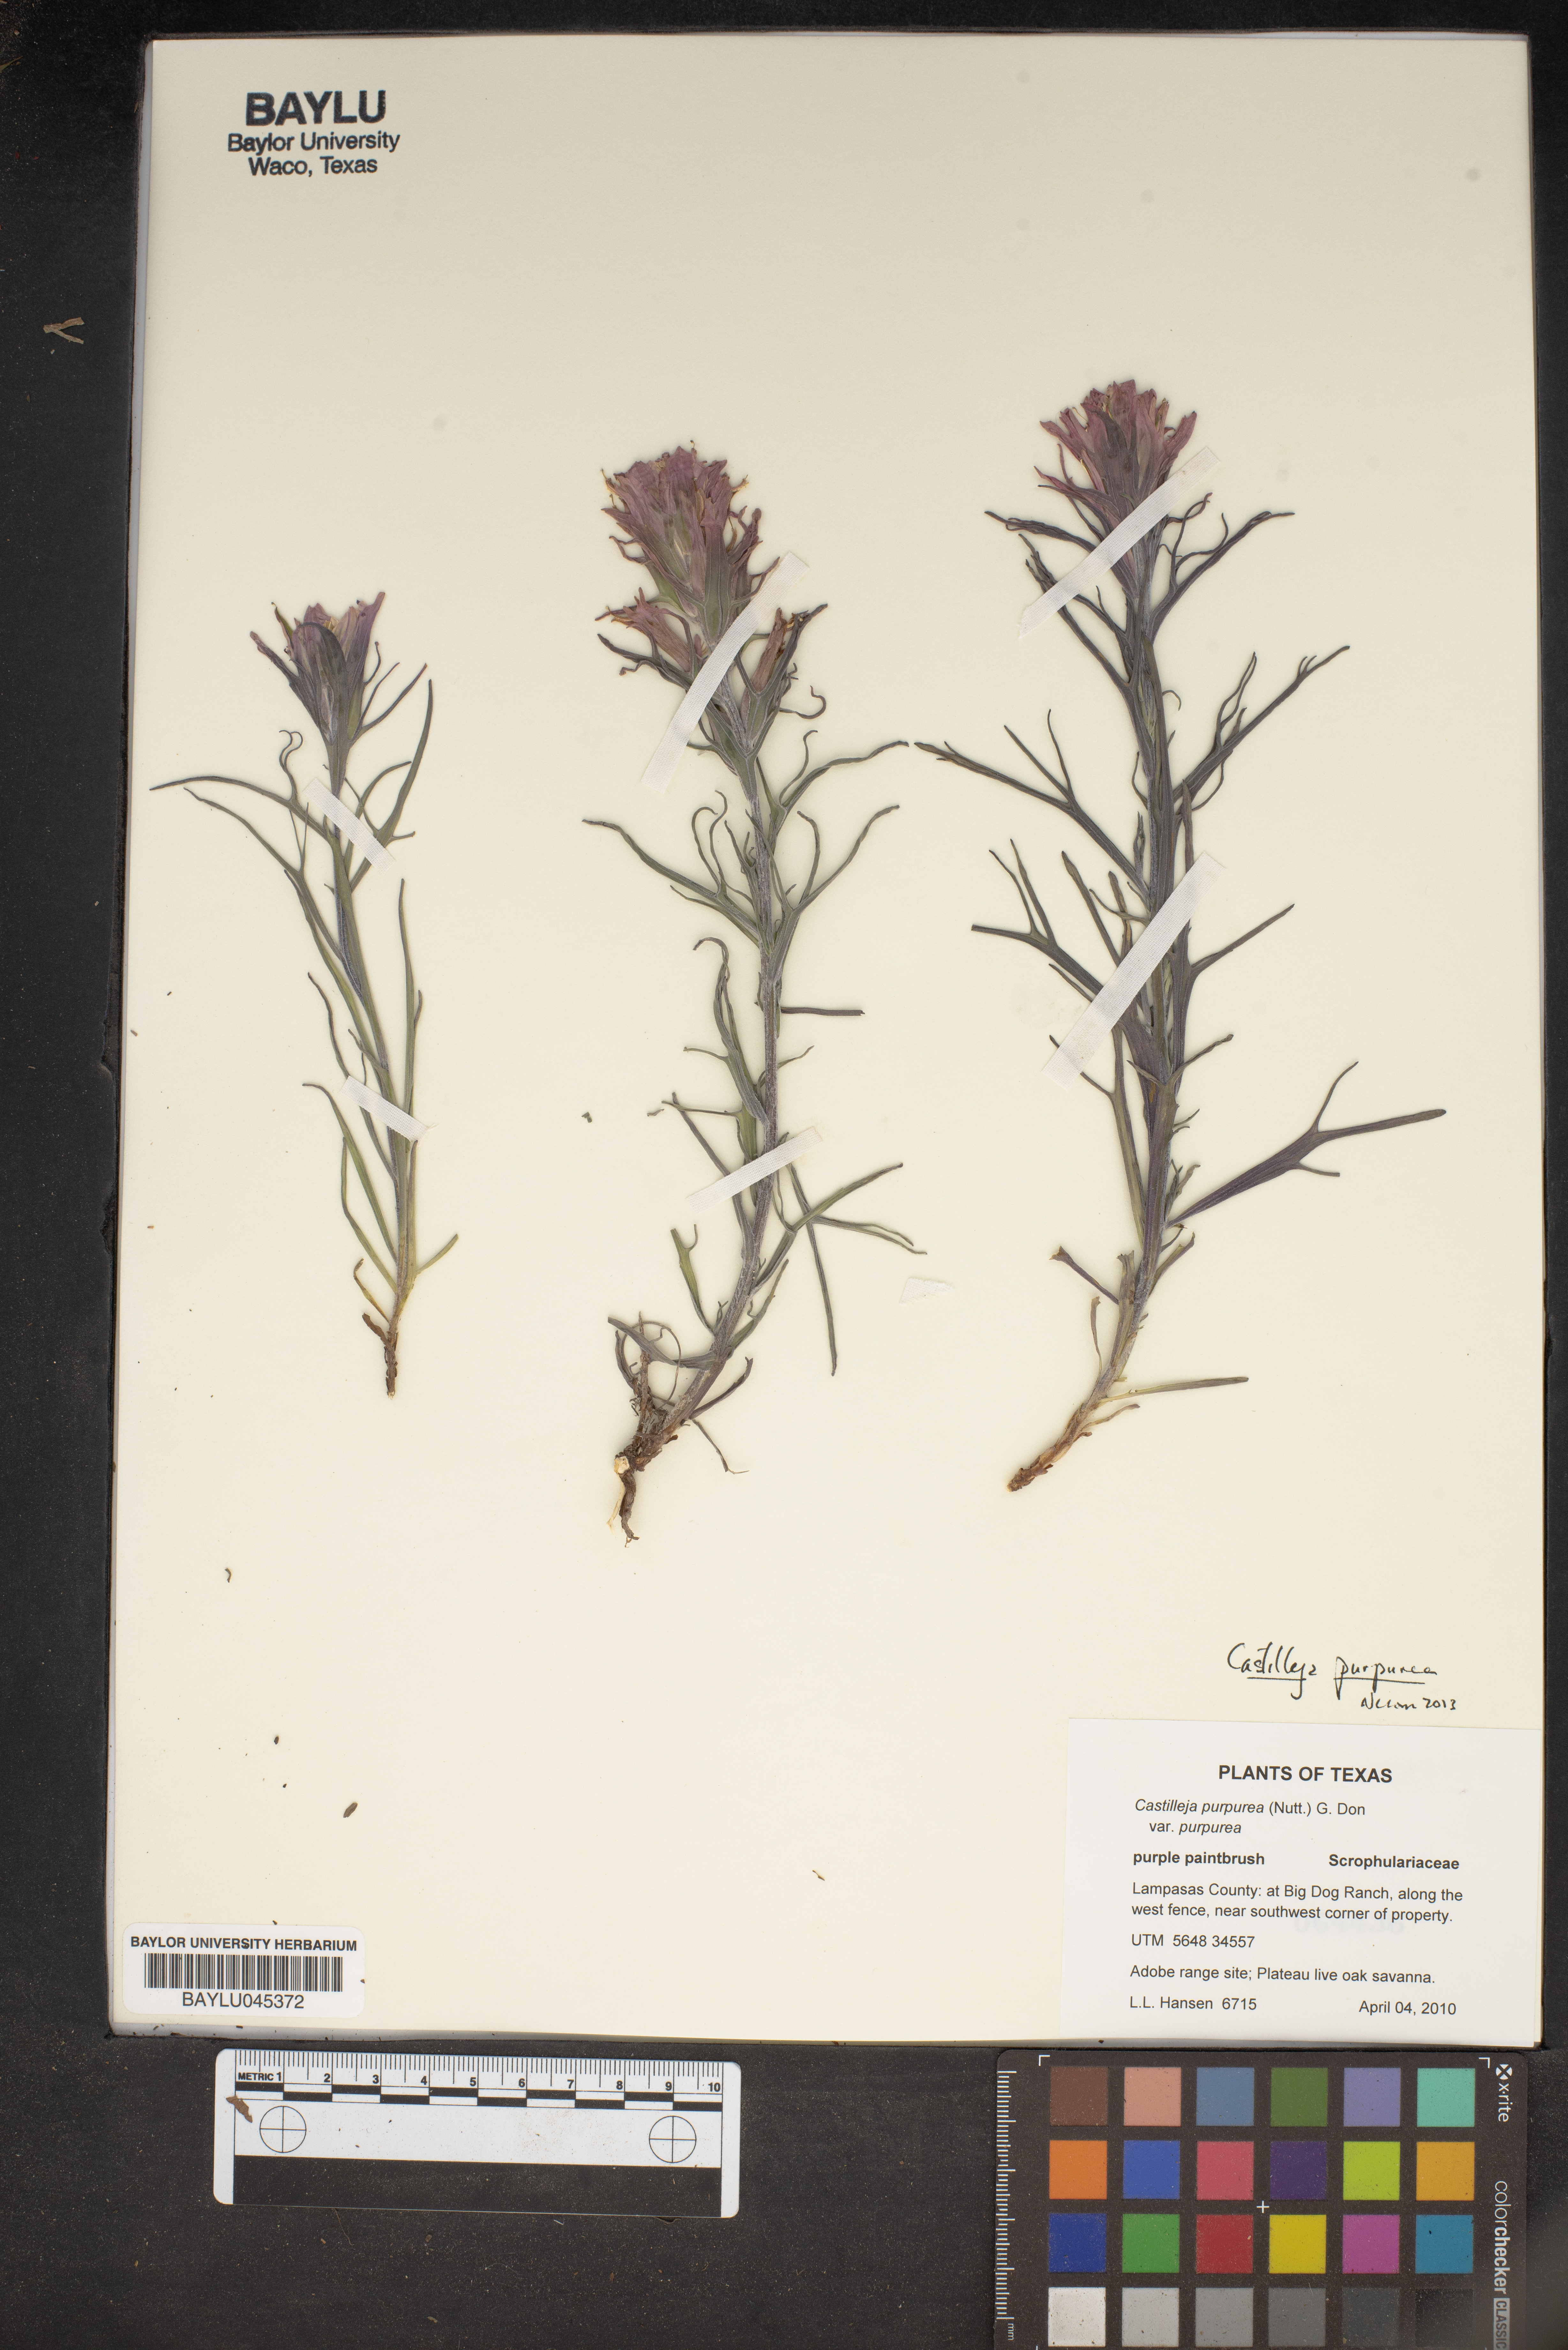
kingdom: Plantae
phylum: Tracheophyta
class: Magnoliopsida
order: Lamiales
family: Orobanchaceae
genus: Castilleja
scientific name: Castilleja purpurea
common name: Plains paintbrush
